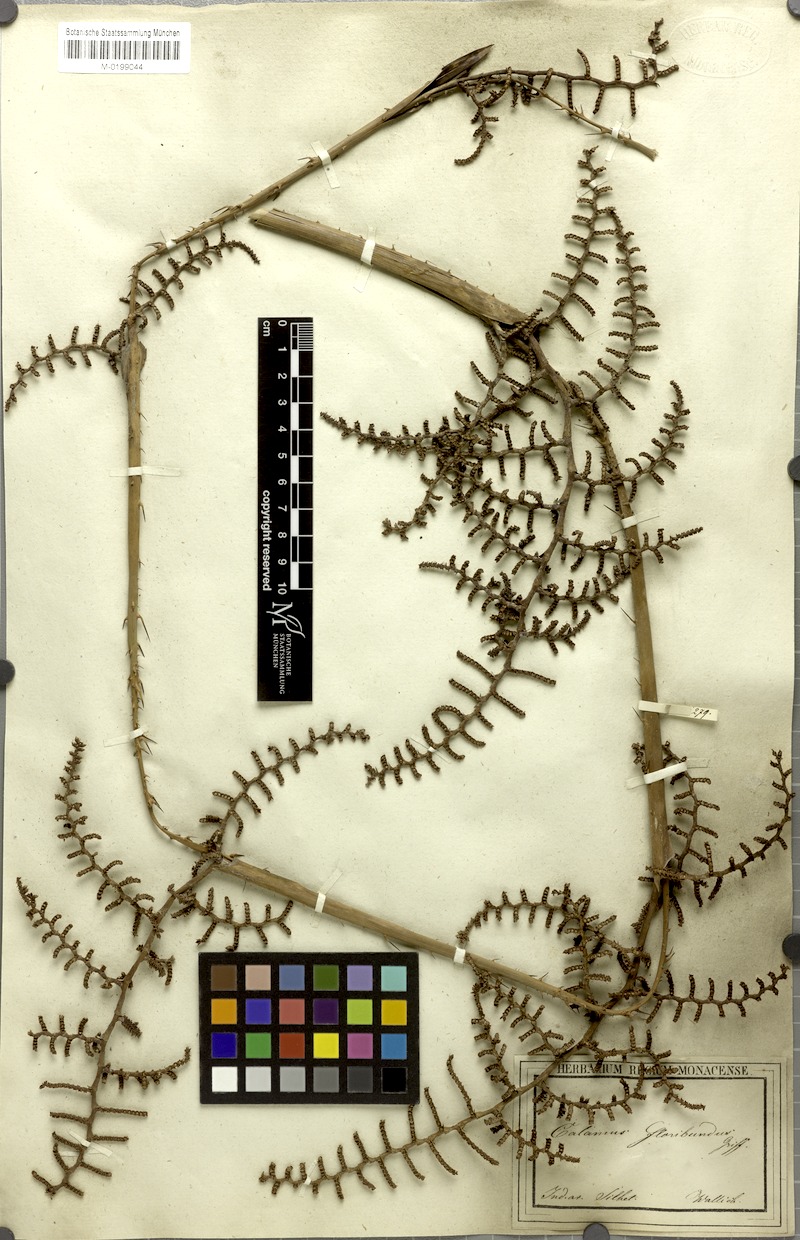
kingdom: Plantae
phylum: Tracheophyta
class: Liliopsida
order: Arecales
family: Arecaceae
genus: Calamus
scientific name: Calamus floribundus
